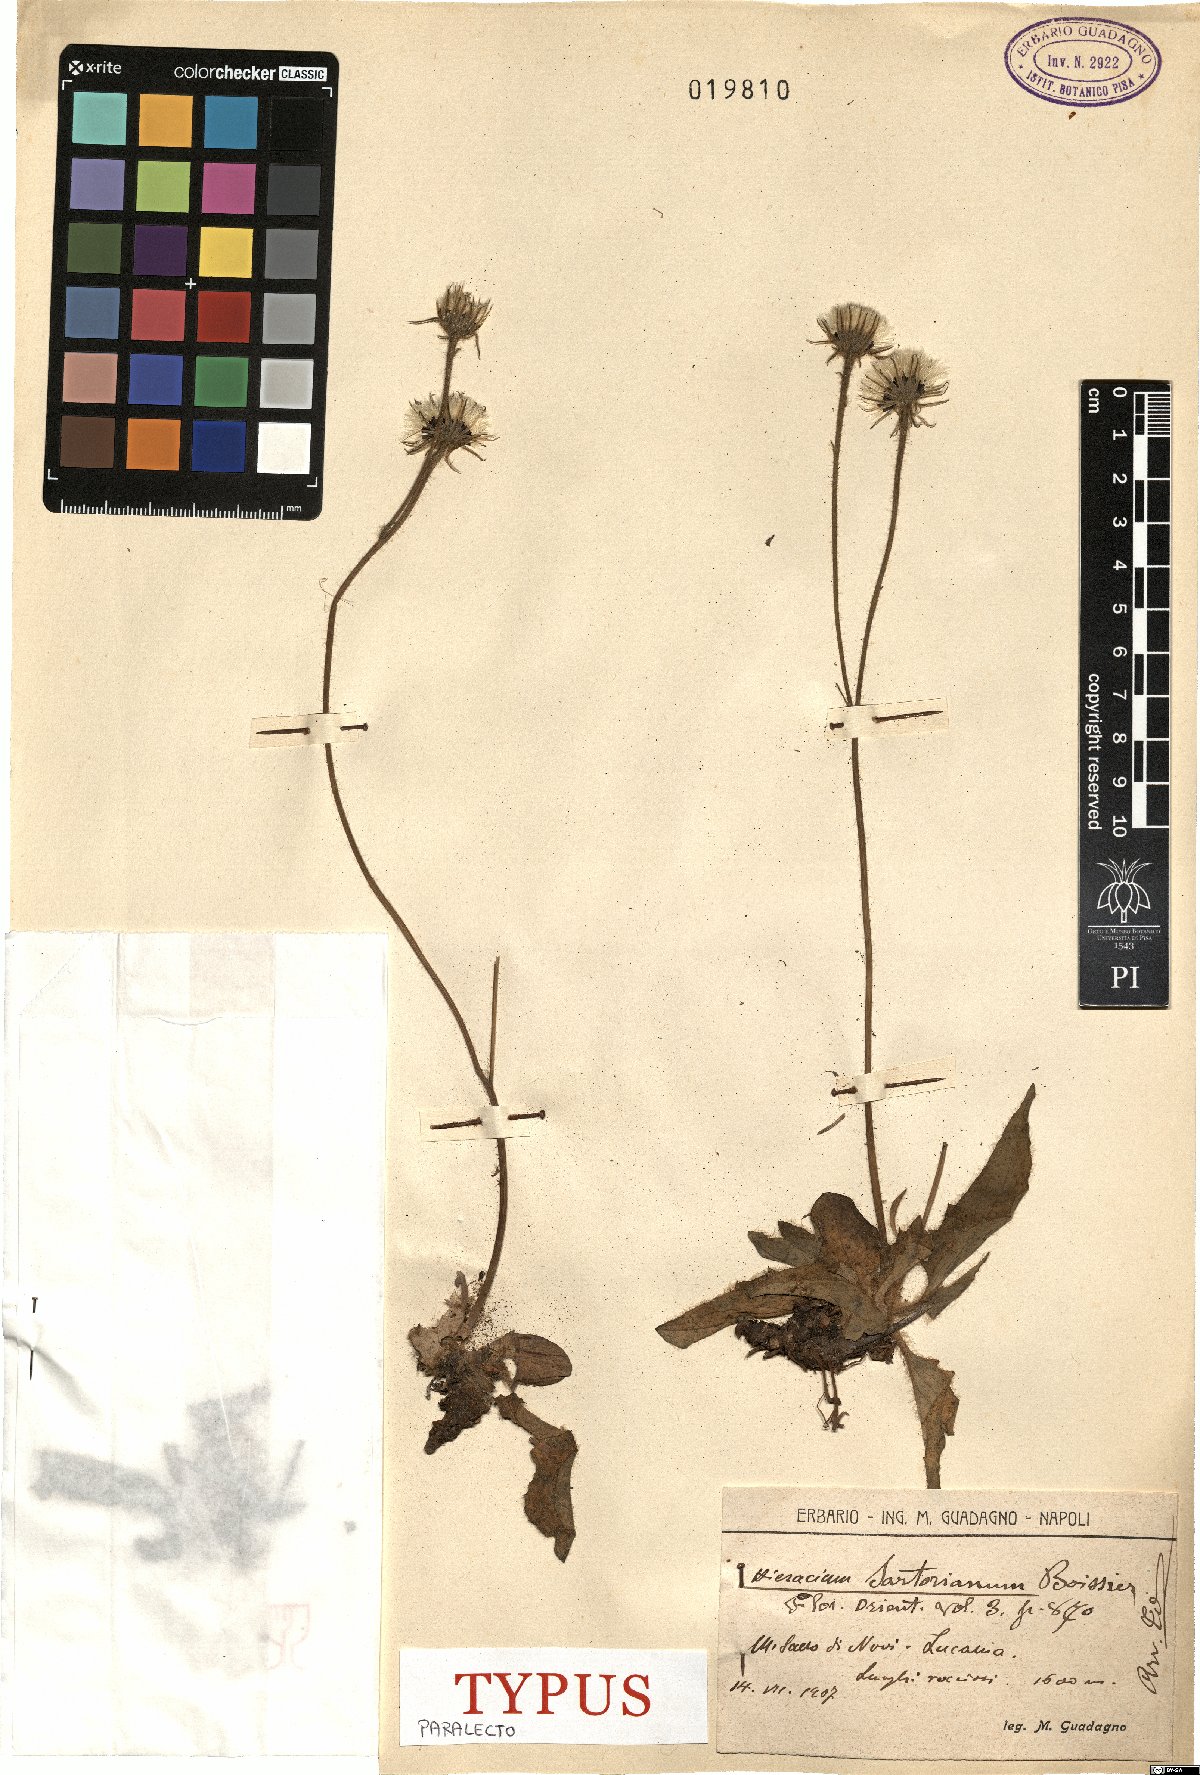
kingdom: Plantae
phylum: Tracheophyta
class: Magnoliopsida
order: Asterales
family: Asteraceae
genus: Hieracium
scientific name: Hieracium sartorianum
